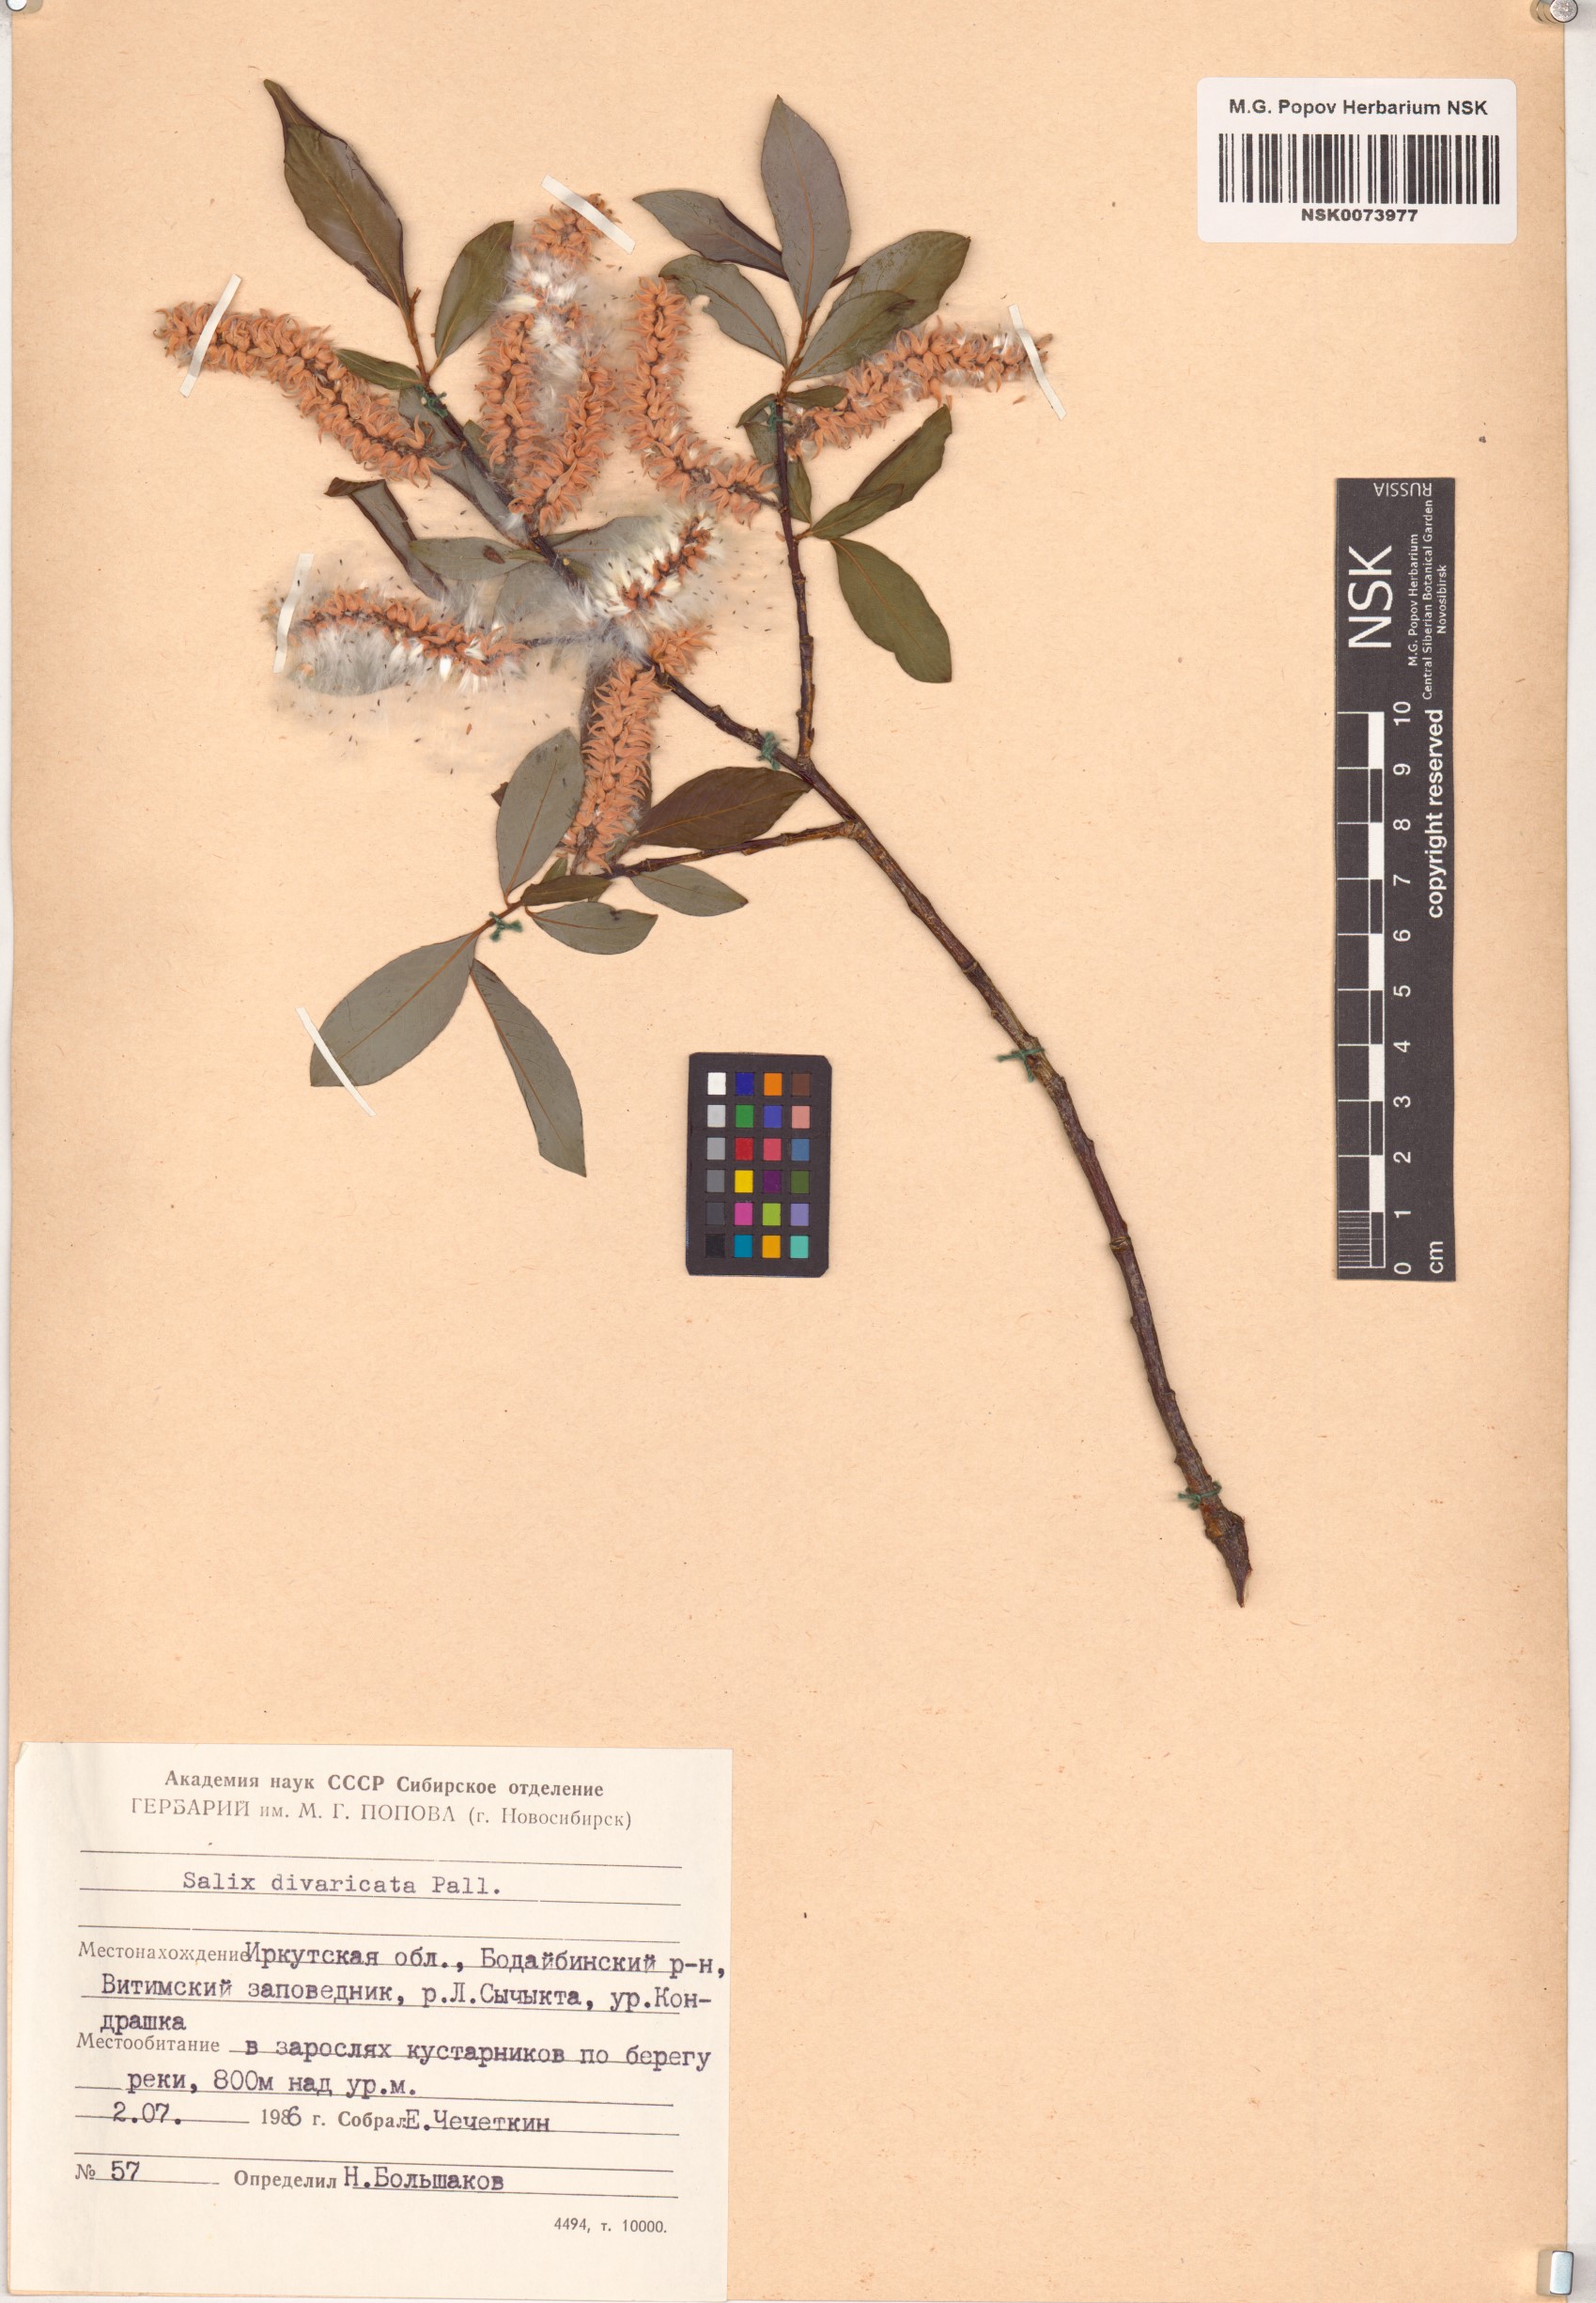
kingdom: Plantae
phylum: Tracheophyta
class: Magnoliopsida
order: Malpighiales
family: Salicaceae
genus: Salix
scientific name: Salix divaricata
